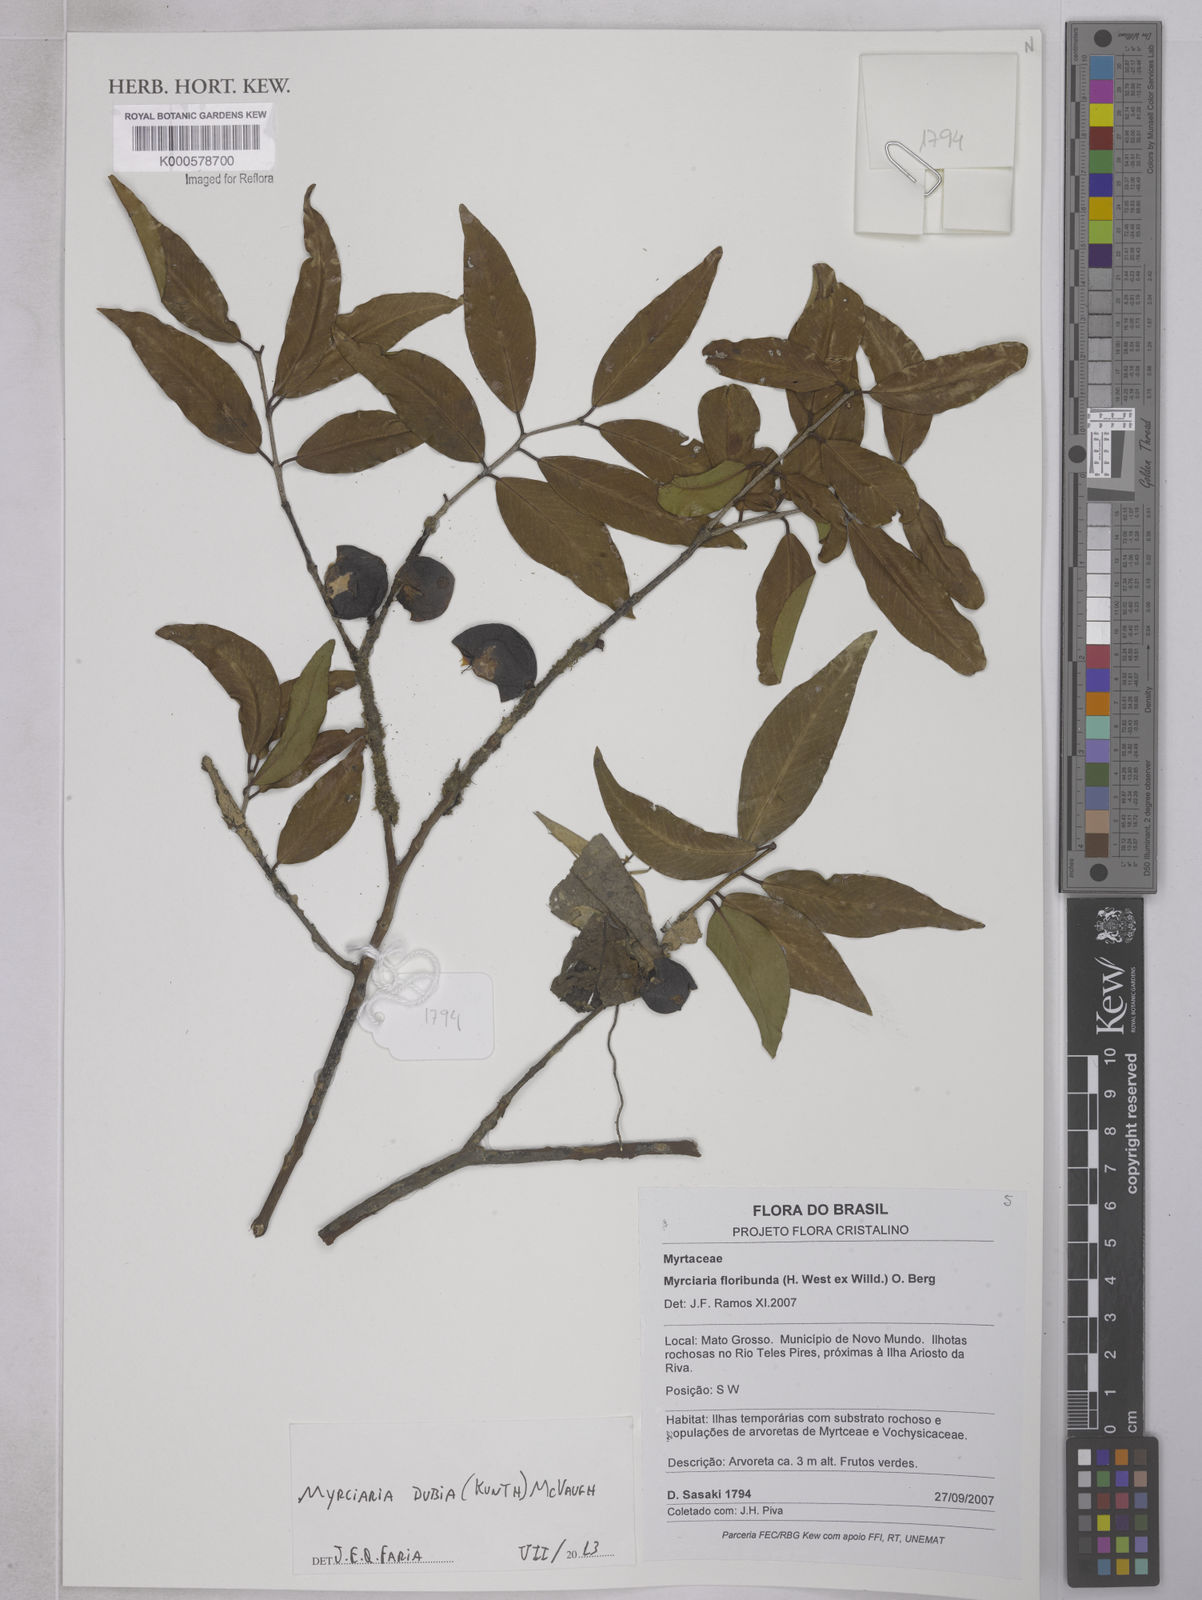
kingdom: Plantae
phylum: Tracheophyta
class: Magnoliopsida
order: Myrtales
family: Myrtaceae
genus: Myrciaria
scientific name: Myrciaria dubia
